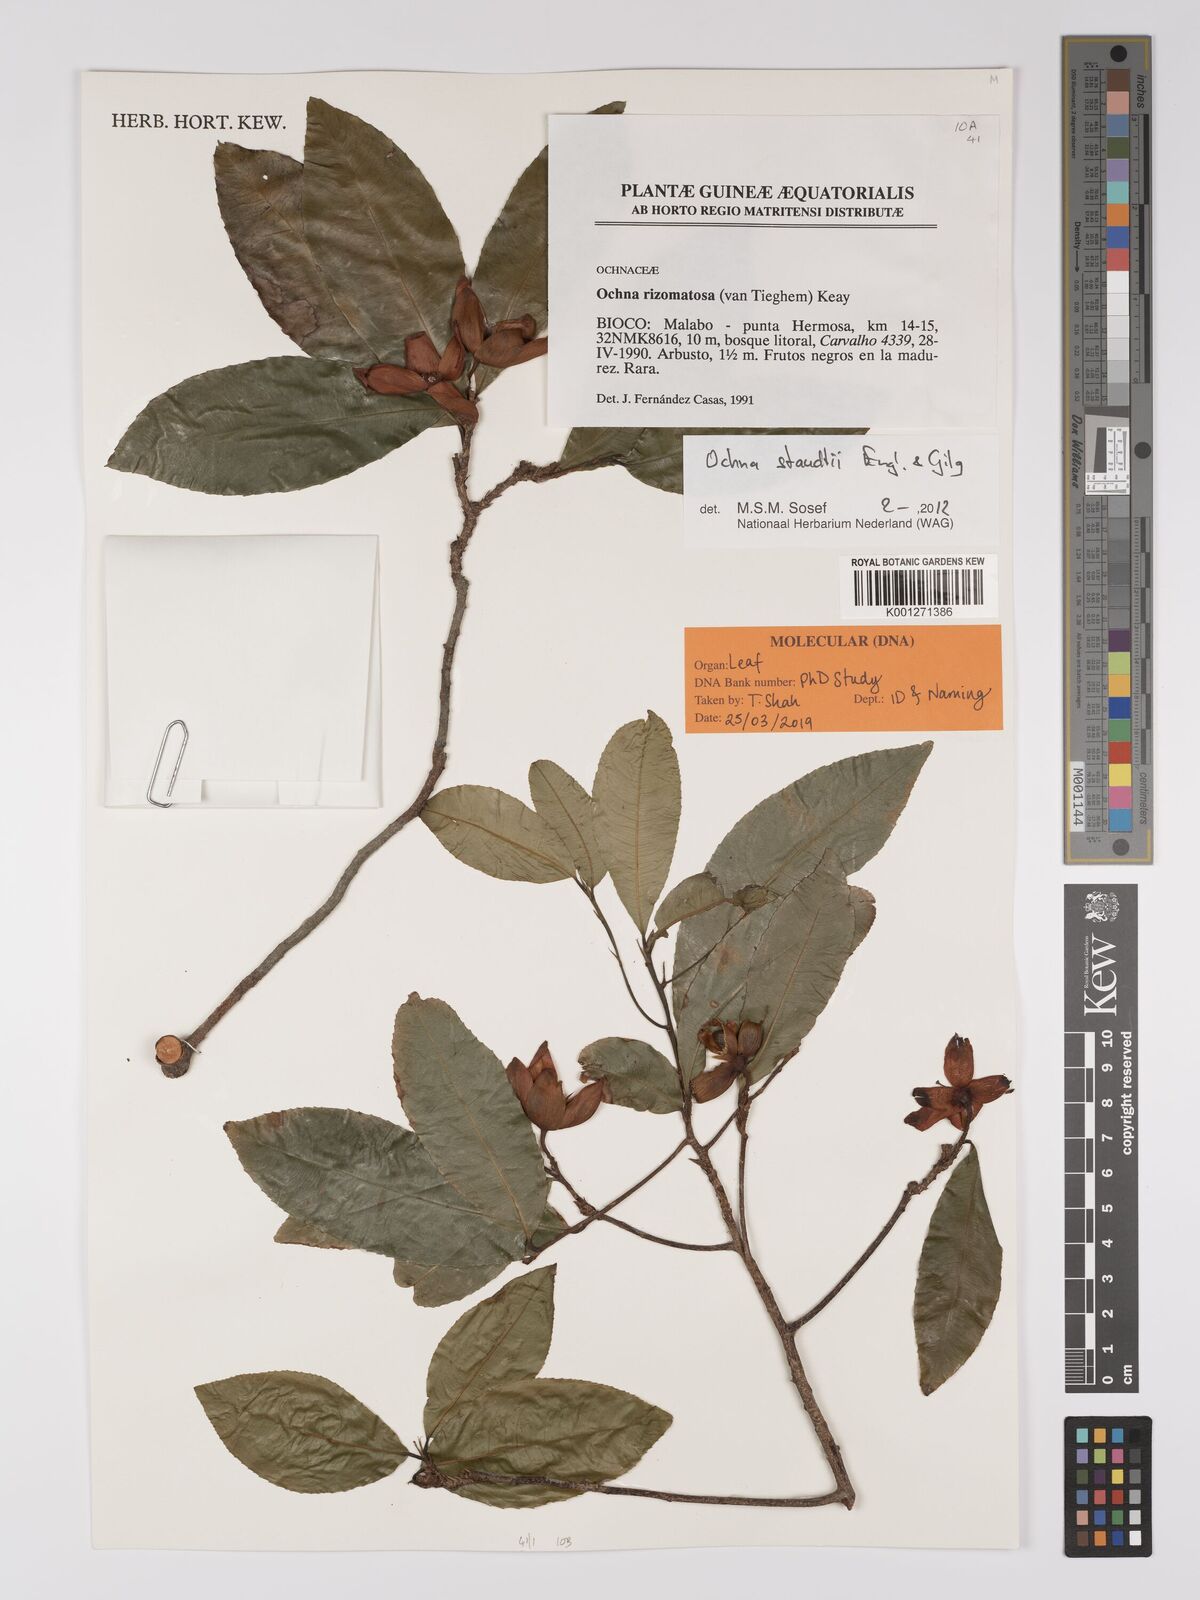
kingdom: Plantae
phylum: Tracheophyta
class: Magnoliopsida
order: Malpighiales
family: Ochnaceae
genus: Ochna
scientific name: Ochna staudtii
